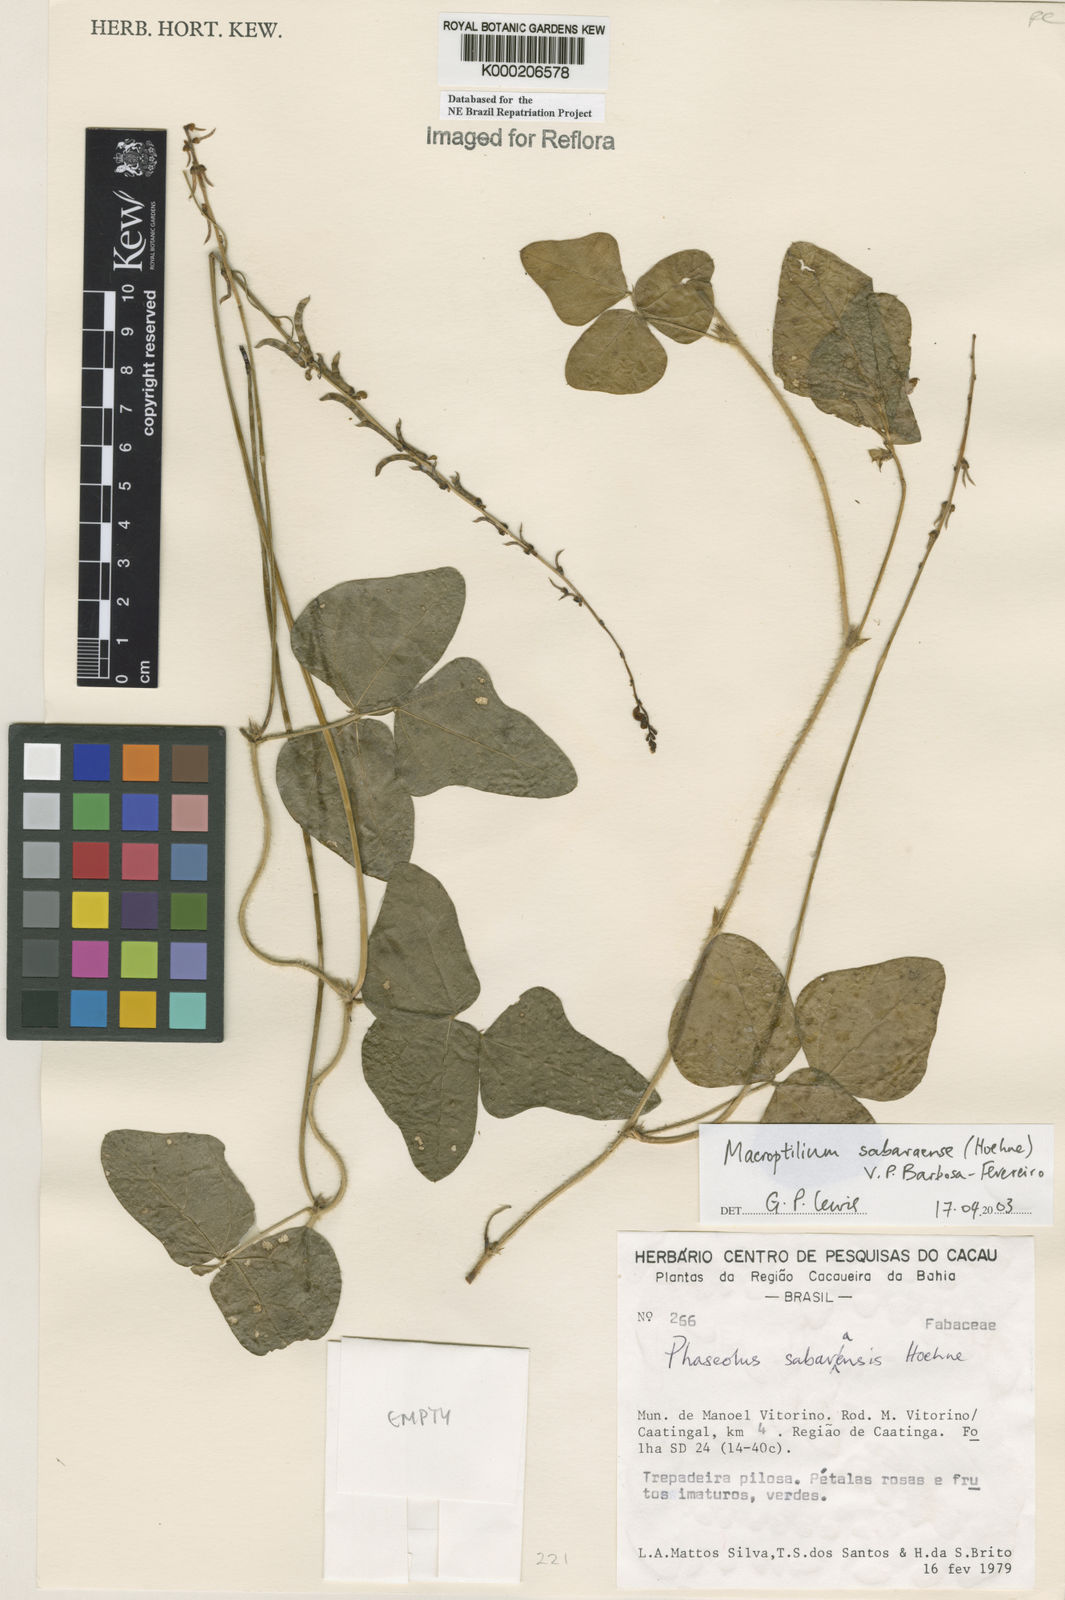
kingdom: Plantae
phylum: Tracheophyta
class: Magnoliopsida
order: Fabales
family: Fabaceae
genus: Macroptilium
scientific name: Macroptilium sabaraense
